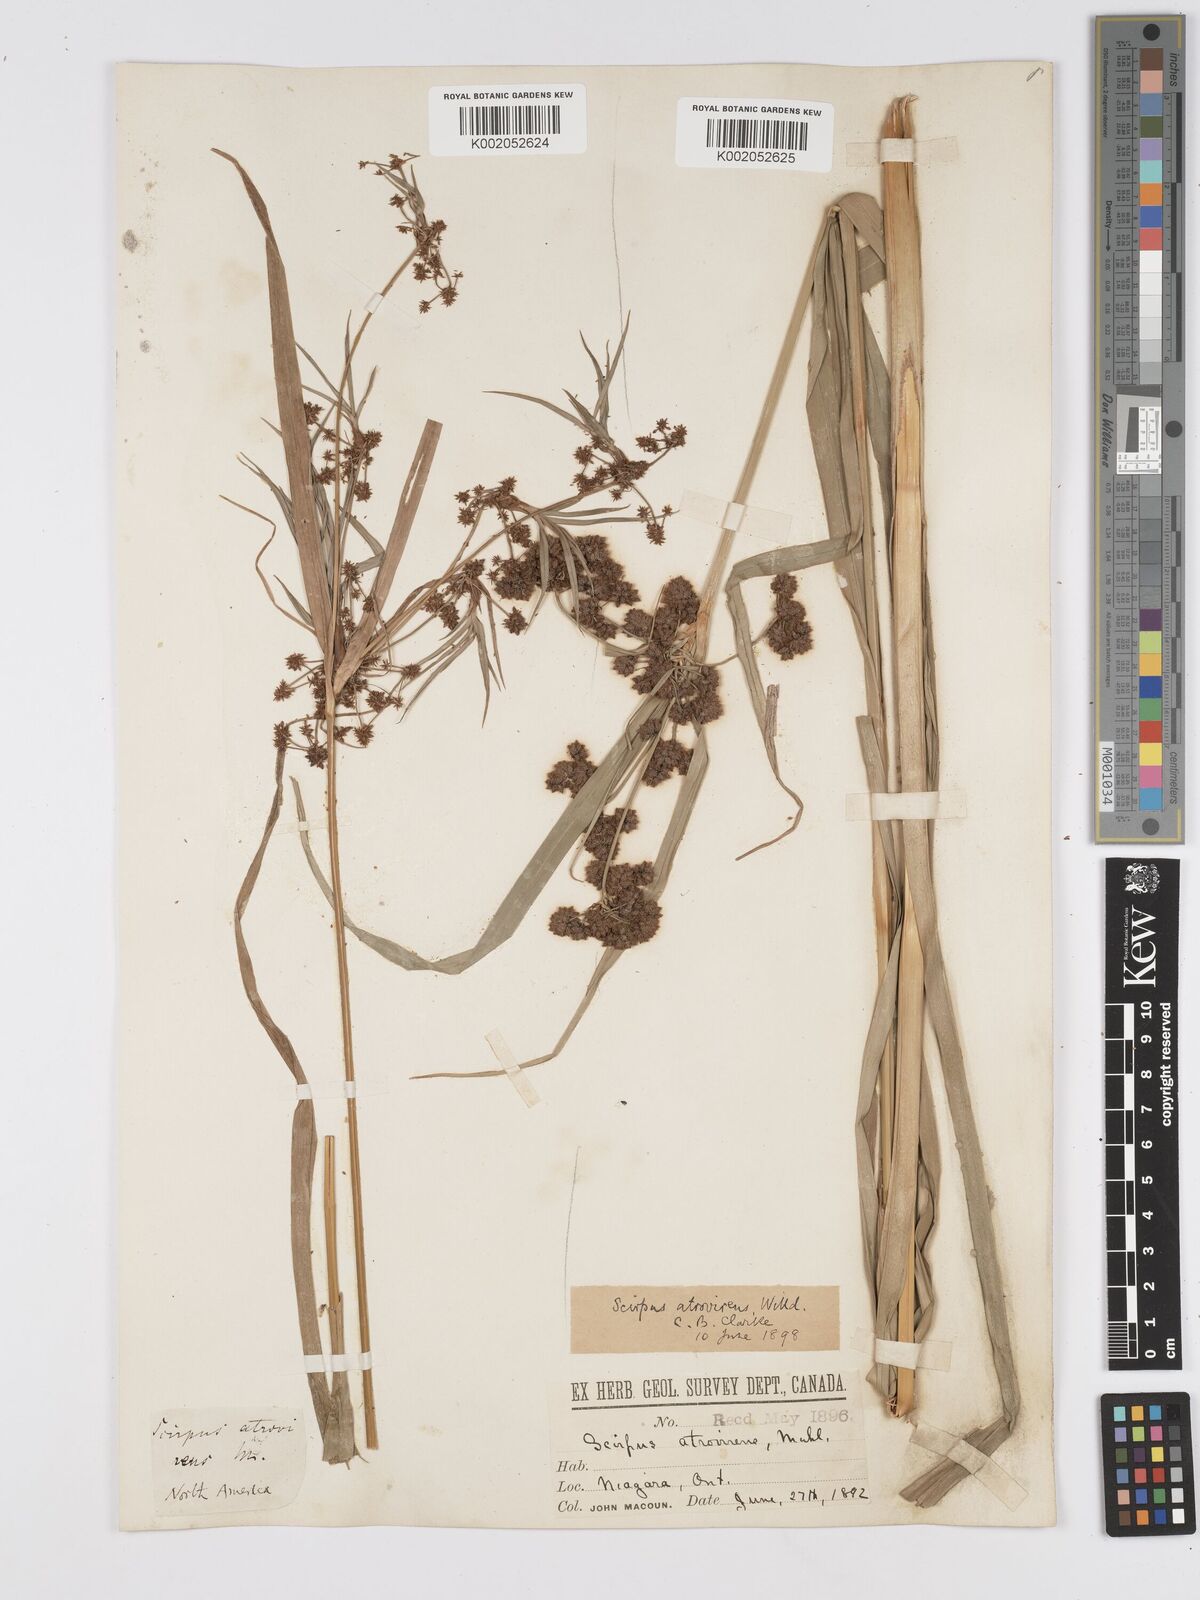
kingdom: Plantae
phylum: Tracheophyta
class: Liliopsida
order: Poales
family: Cyperaceae
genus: Scirpus
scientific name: Scirpus atrovirens
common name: Black bulrush
